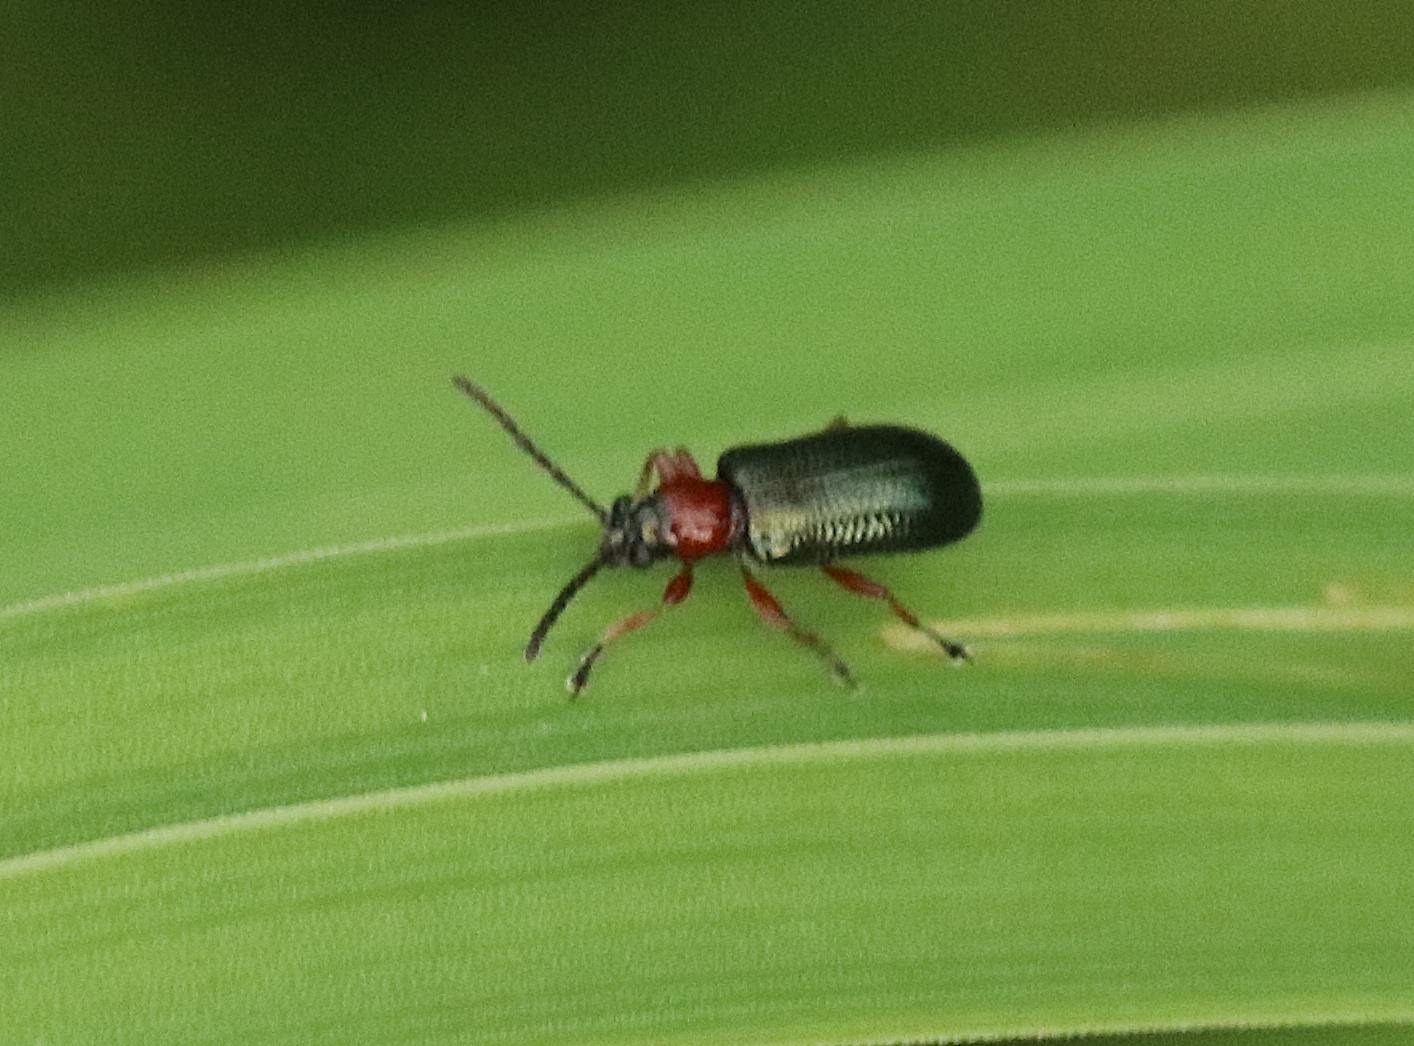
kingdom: Animalia
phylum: Arthropoda
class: Insecta
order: Coleoptera
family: Chrysomelidae
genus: Oulema
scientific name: Oulema
